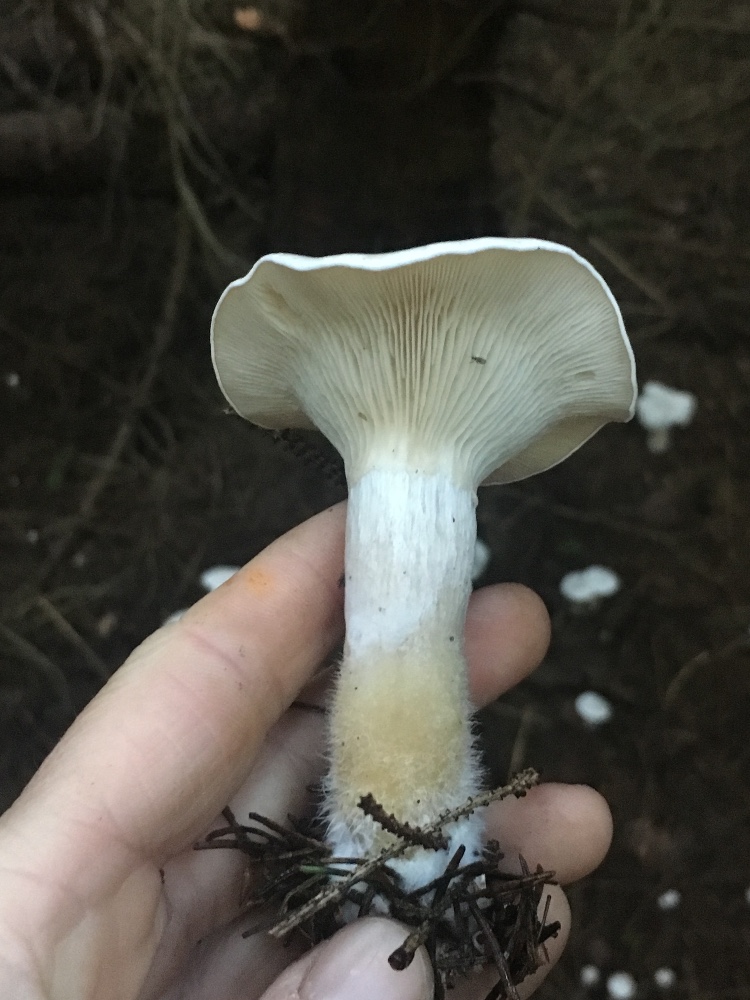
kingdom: Fungi
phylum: Basidiomycota
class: Agaricomycetes
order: Agaricales
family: Tricholomataceae
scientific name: Tricholomataceae
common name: ridderhatfamilien
